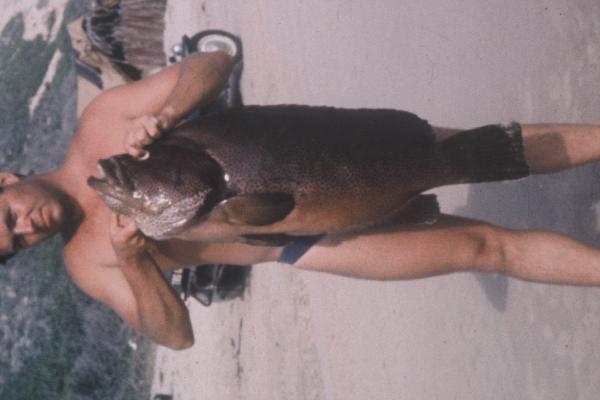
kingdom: Animalia
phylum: Chordata
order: Perciformes
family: Serranidae
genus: Dermatolepis
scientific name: Dermatolepis striolata
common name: Smooth grouper
